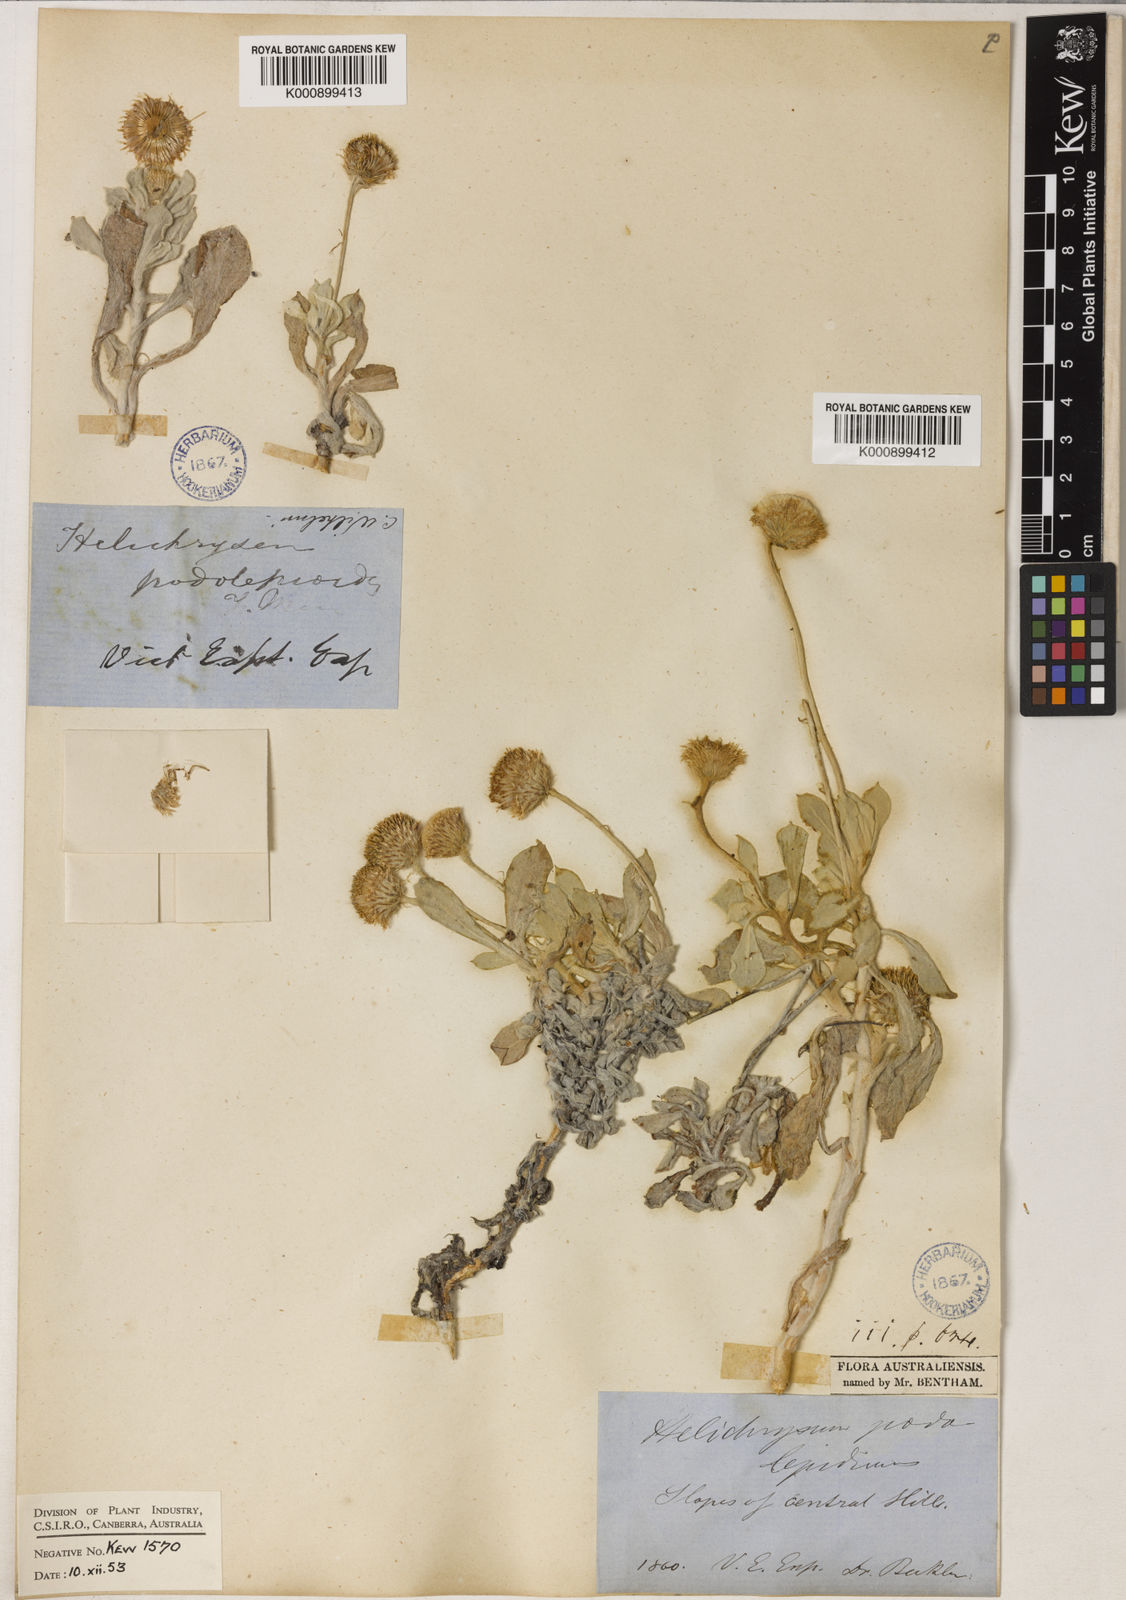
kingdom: Plantae
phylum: Tracheophyta
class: Magnoliopsida
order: Asterales
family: Asteraceae
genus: Anemocarpa
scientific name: Anemocarpa podolepidium
